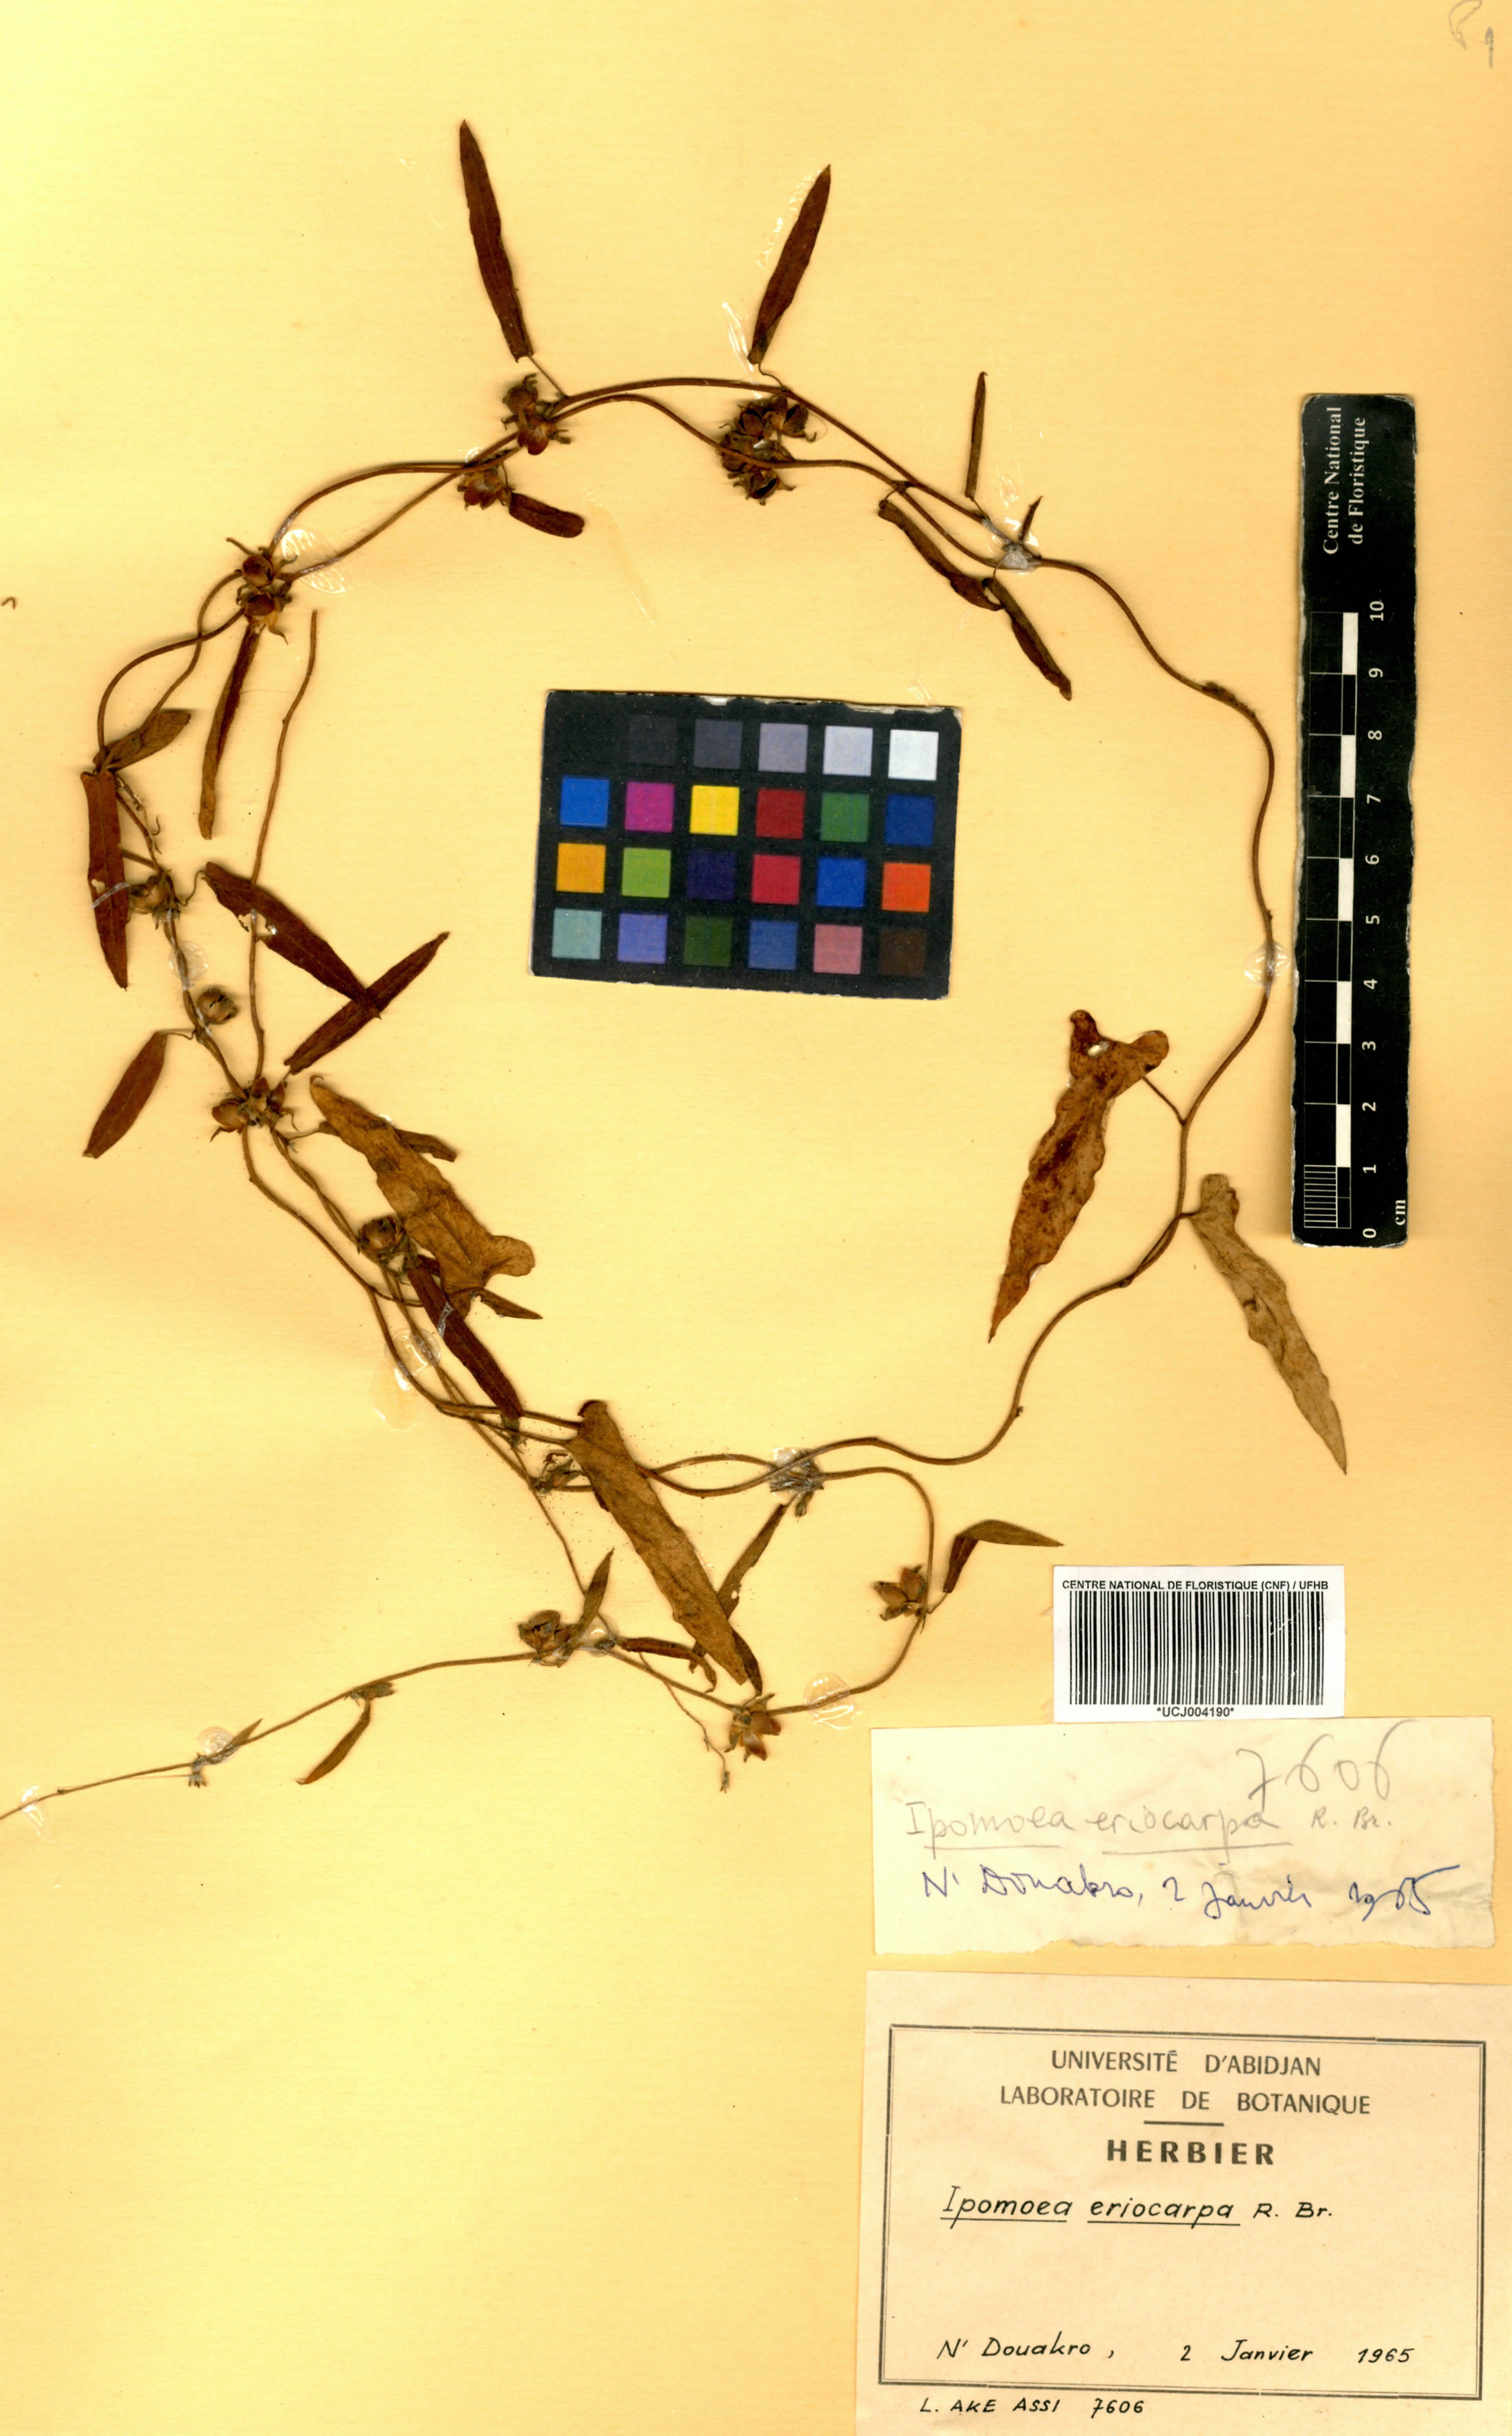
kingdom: Plantae
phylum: Tracheophyta
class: Magnoliopsida
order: Solanales
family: Convolvulaceae
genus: Ipomoea
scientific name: Ipomoea eriocarpa
